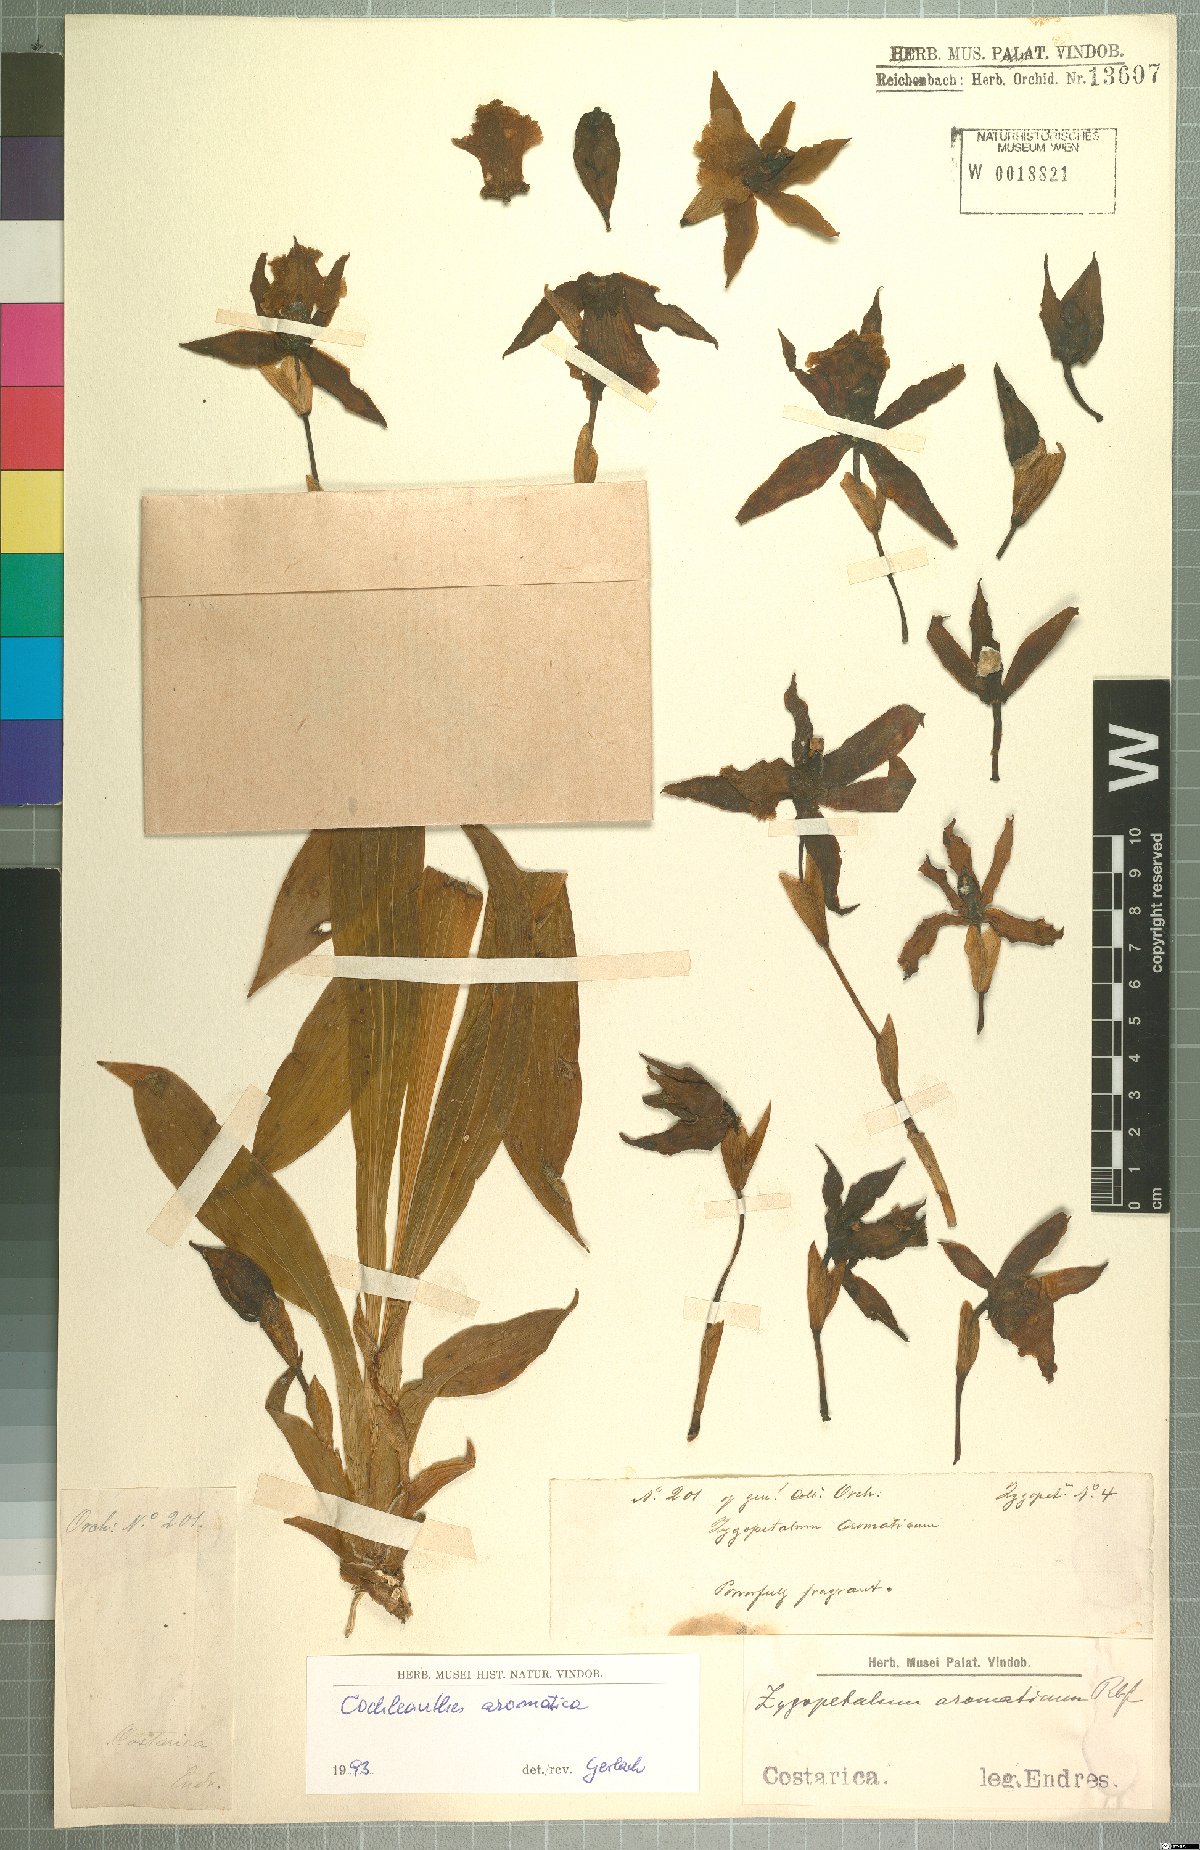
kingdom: Plantae
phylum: Tracheophyta
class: Liliopsida
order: Asparagales
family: Orchidaceae
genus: Cochleanthes
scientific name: Cochleanthes aromatica
